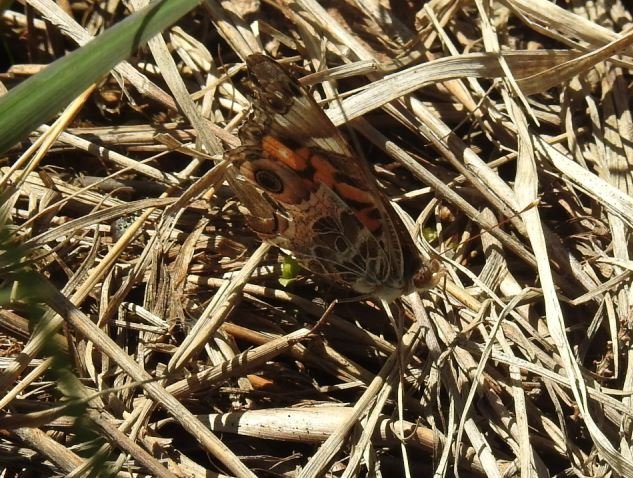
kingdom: Animalia
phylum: Arthropoda
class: Insecta
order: Lepidoptera
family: Nymphalidae
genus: Vanessa
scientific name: Vanessa virginiensis
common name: American Lady
